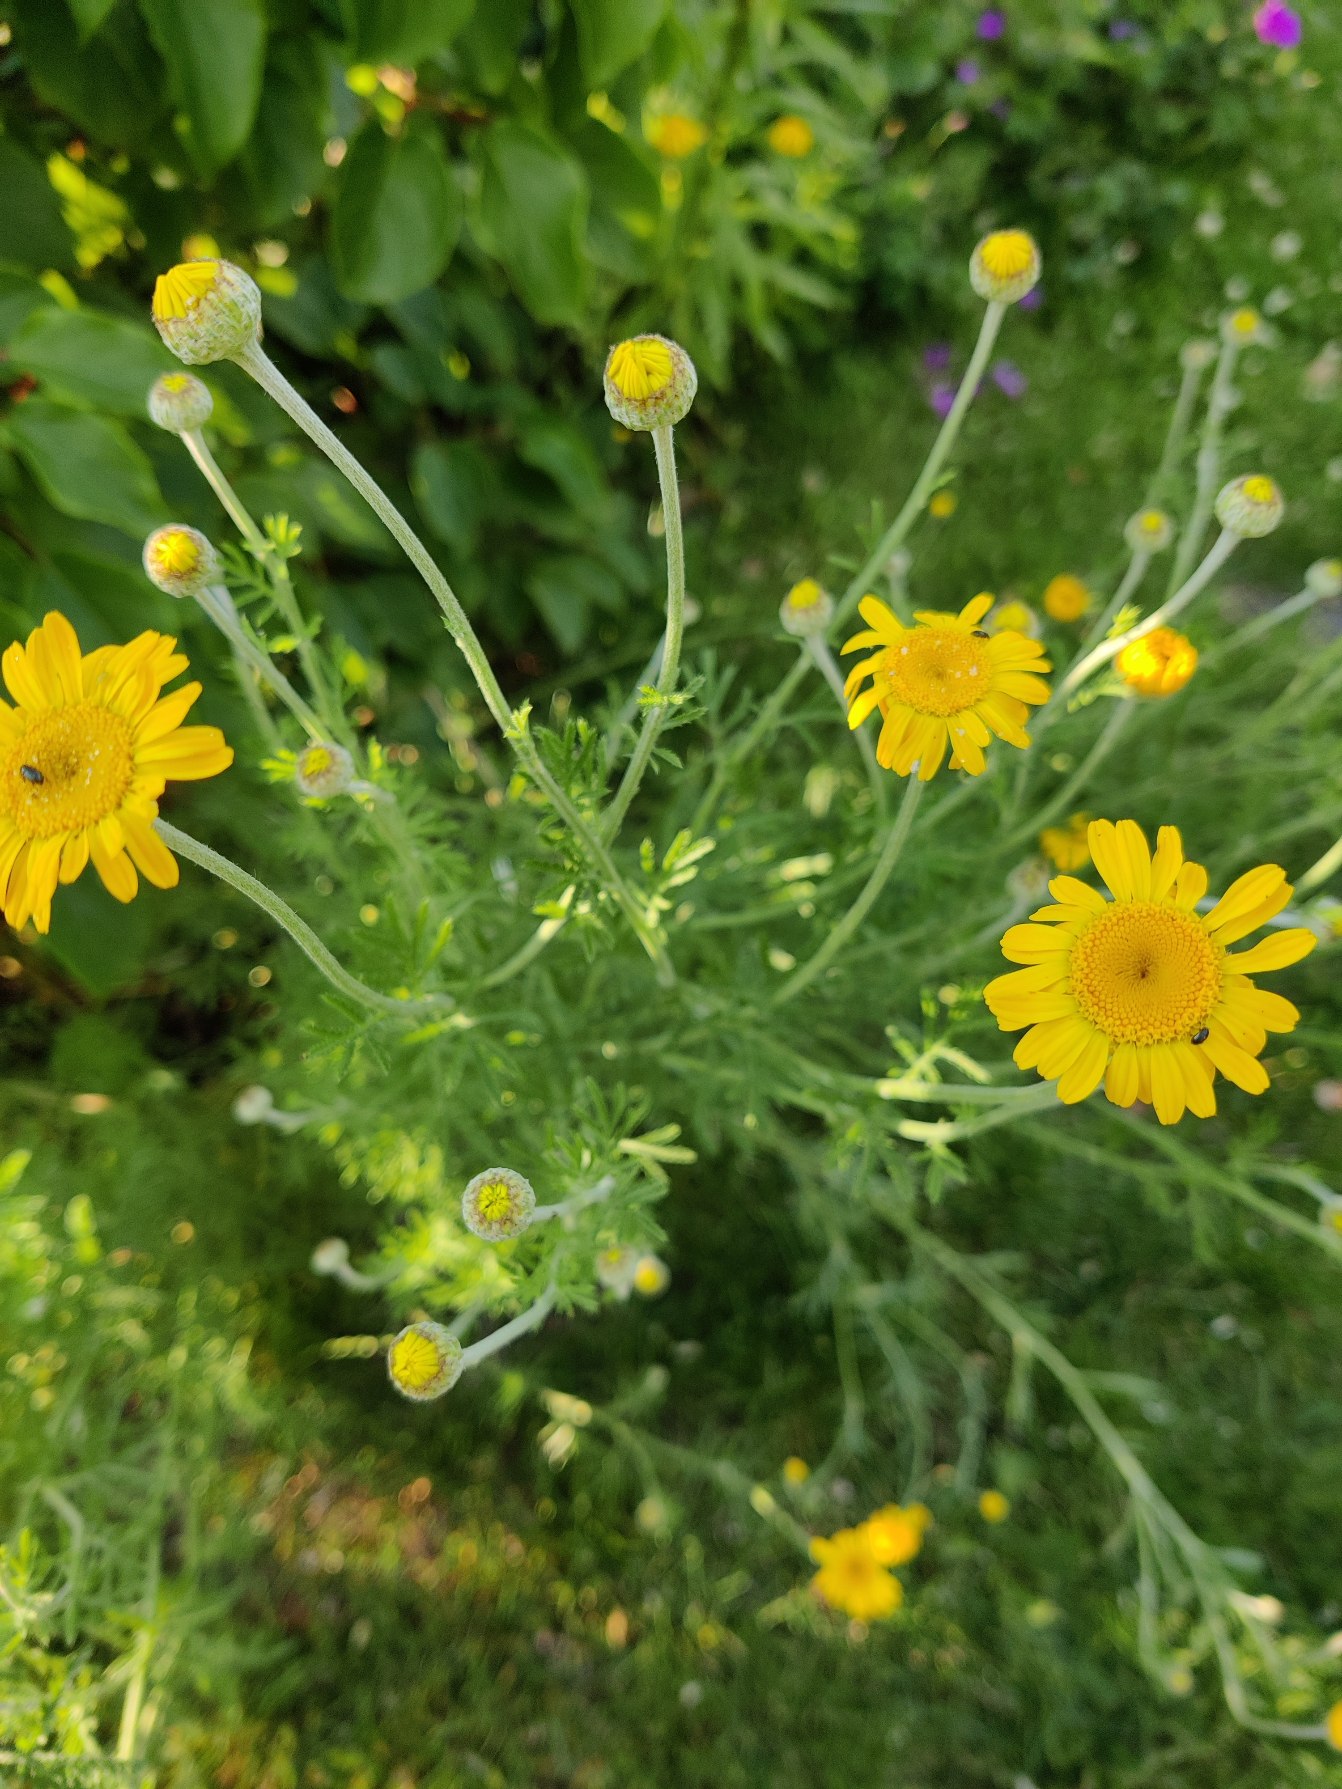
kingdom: Plantae
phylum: Tracheophyta
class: Magnoliopsida
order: Asterales
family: Asteraceae
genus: Cota
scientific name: Cota tinctoria
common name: Farve-gåseurt
